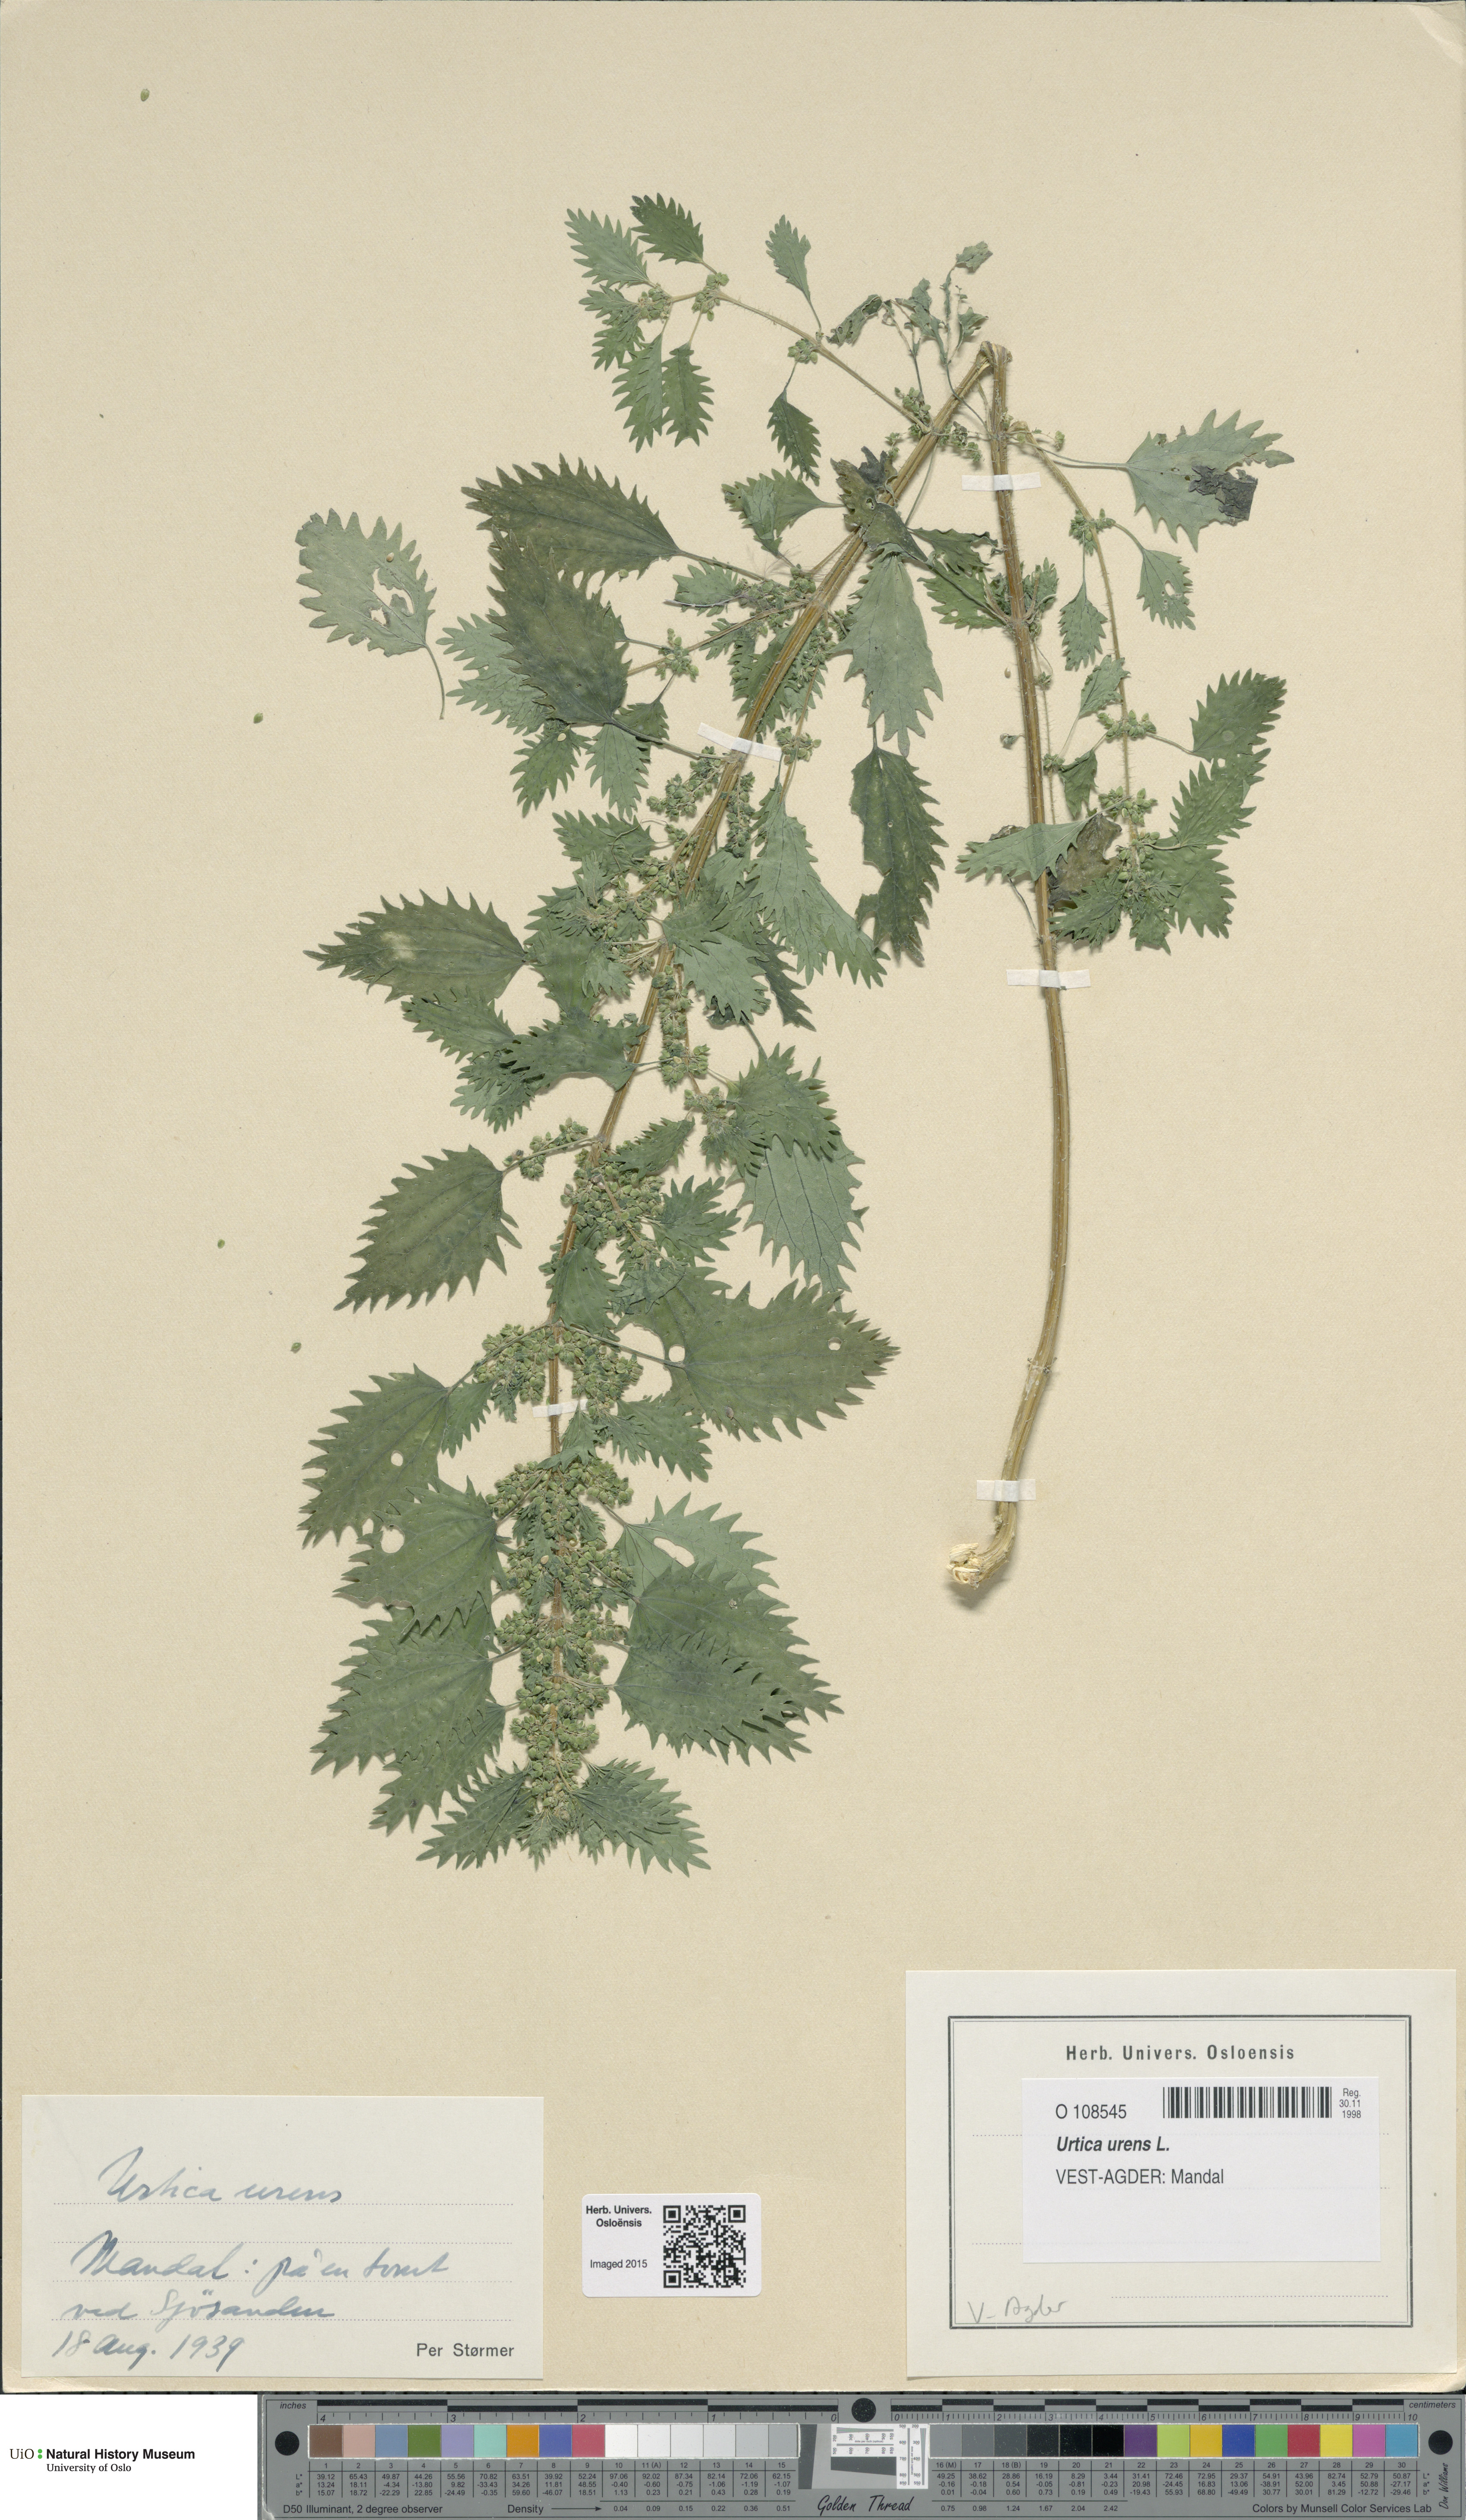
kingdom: Plantae
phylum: Tracheophyta
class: Magnoliopsida
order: Rosales
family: Urticaceae
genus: Urtica
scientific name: Urtica urens
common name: Dwarf nettle
